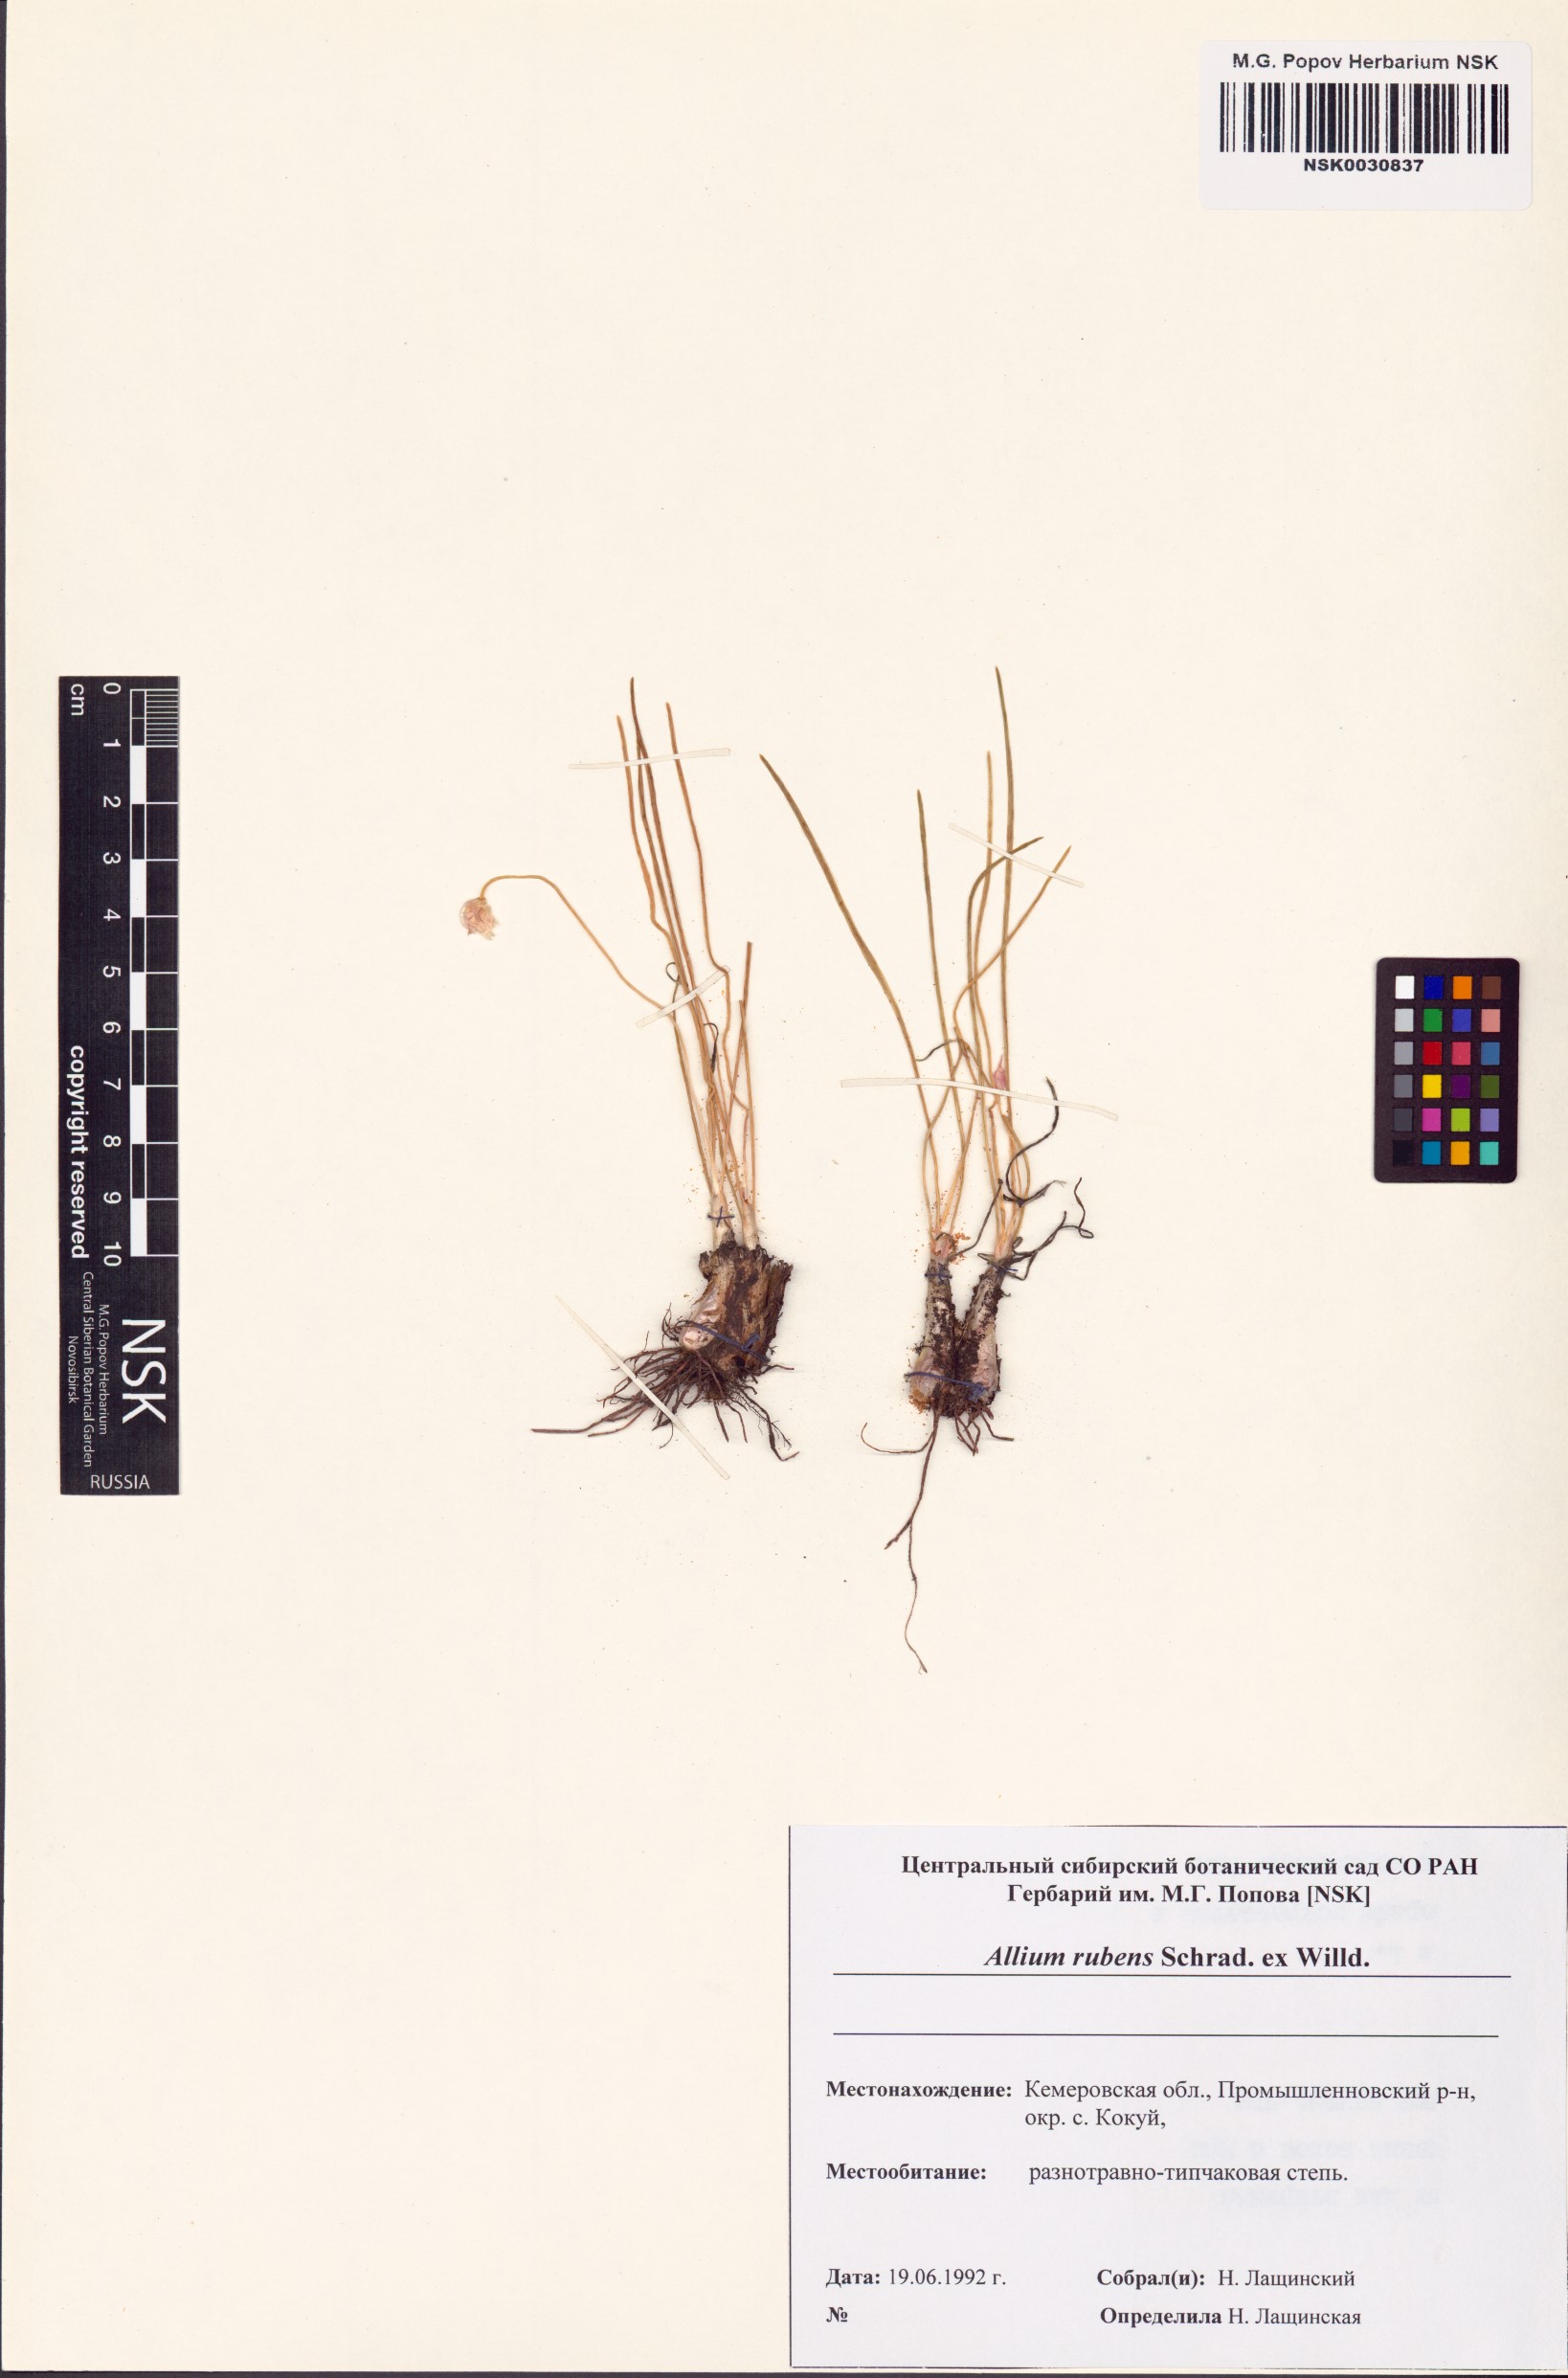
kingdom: Plantae
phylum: Tracheophyta
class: Liliopsida
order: Asparagales
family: Amaryllidaceae
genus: Allium
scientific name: Allium rubens
